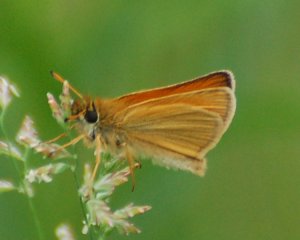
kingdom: Animalia
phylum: Arthropoda
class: Insecta
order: Lepidoptera
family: Hesperiidae
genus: Thymelicus
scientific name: Thymelicus lineola
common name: European Skipper
